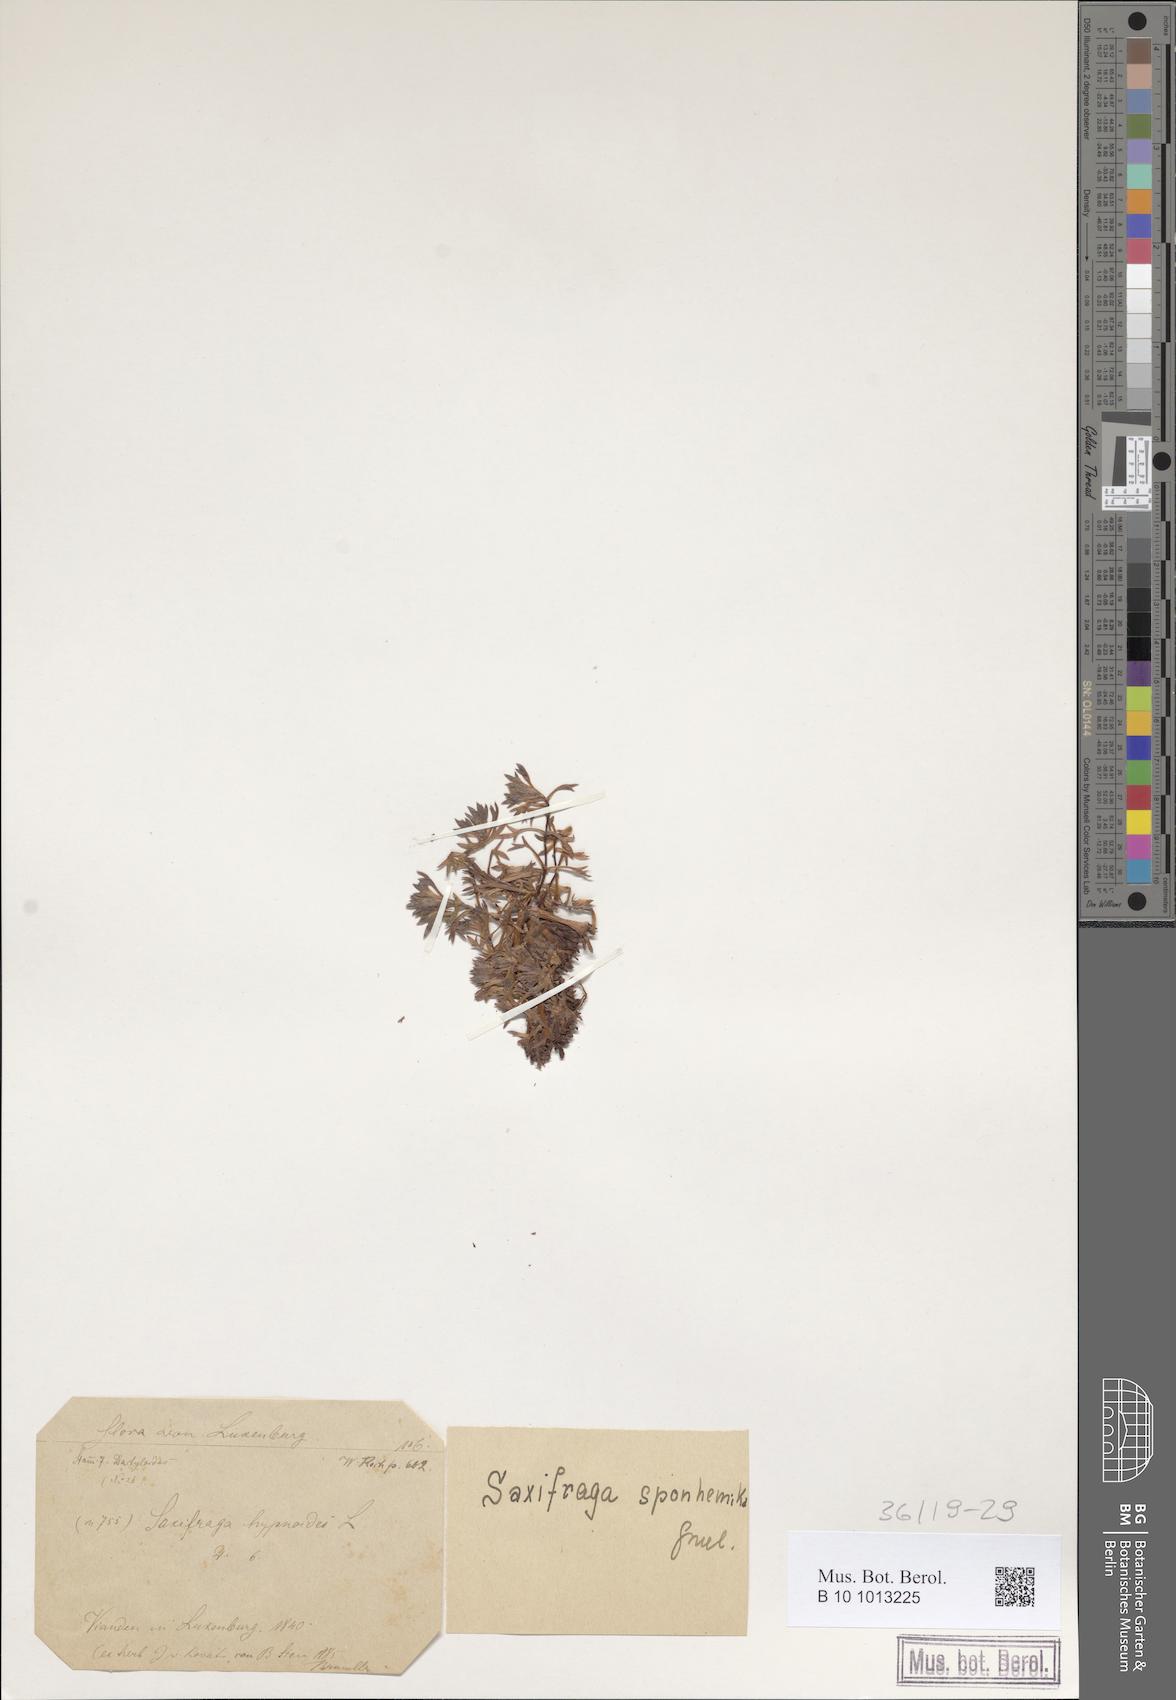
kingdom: Plantae
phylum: Tracheophyta
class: Magnoliopsida
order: Saxifragales
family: Saxifragaceae
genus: Saxifraga
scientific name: Saxifraga rosacea
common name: Irish saxifrage
